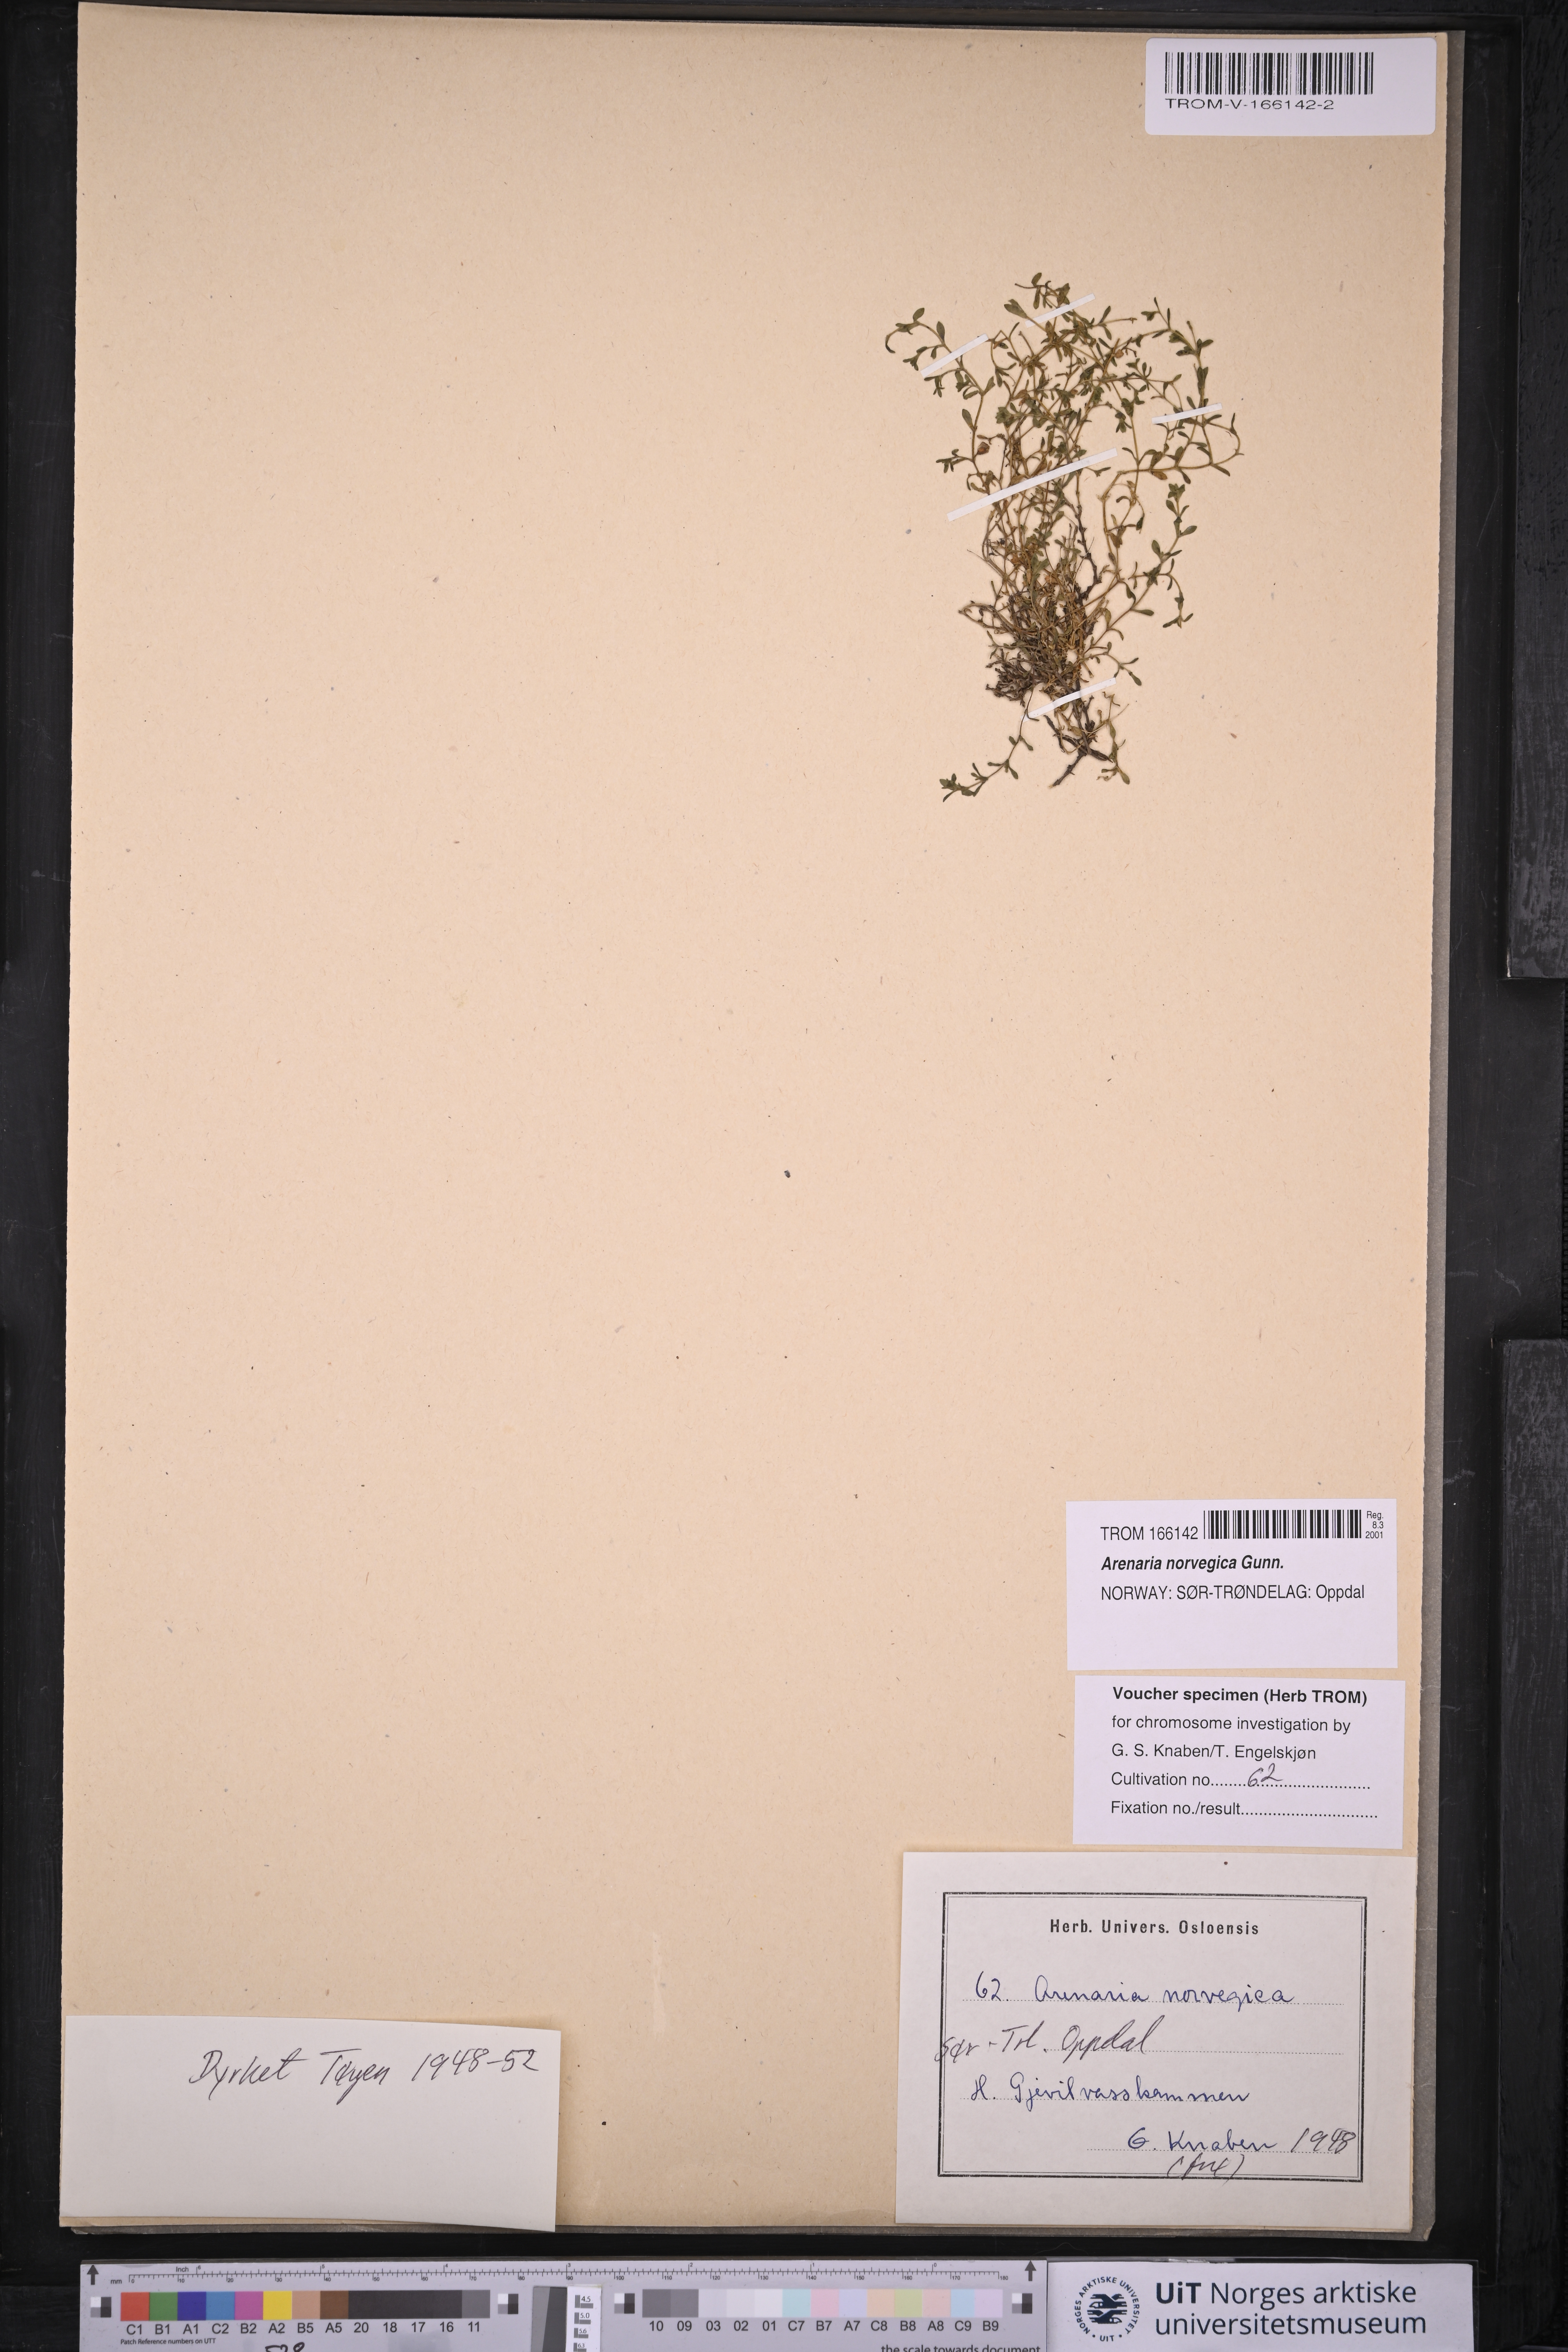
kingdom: Plantae
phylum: Tracheophyta
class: Magnoliopsida
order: Caryophyllales
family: Caryophyllaceae
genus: Arenaria
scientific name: Arenaria norvegica
